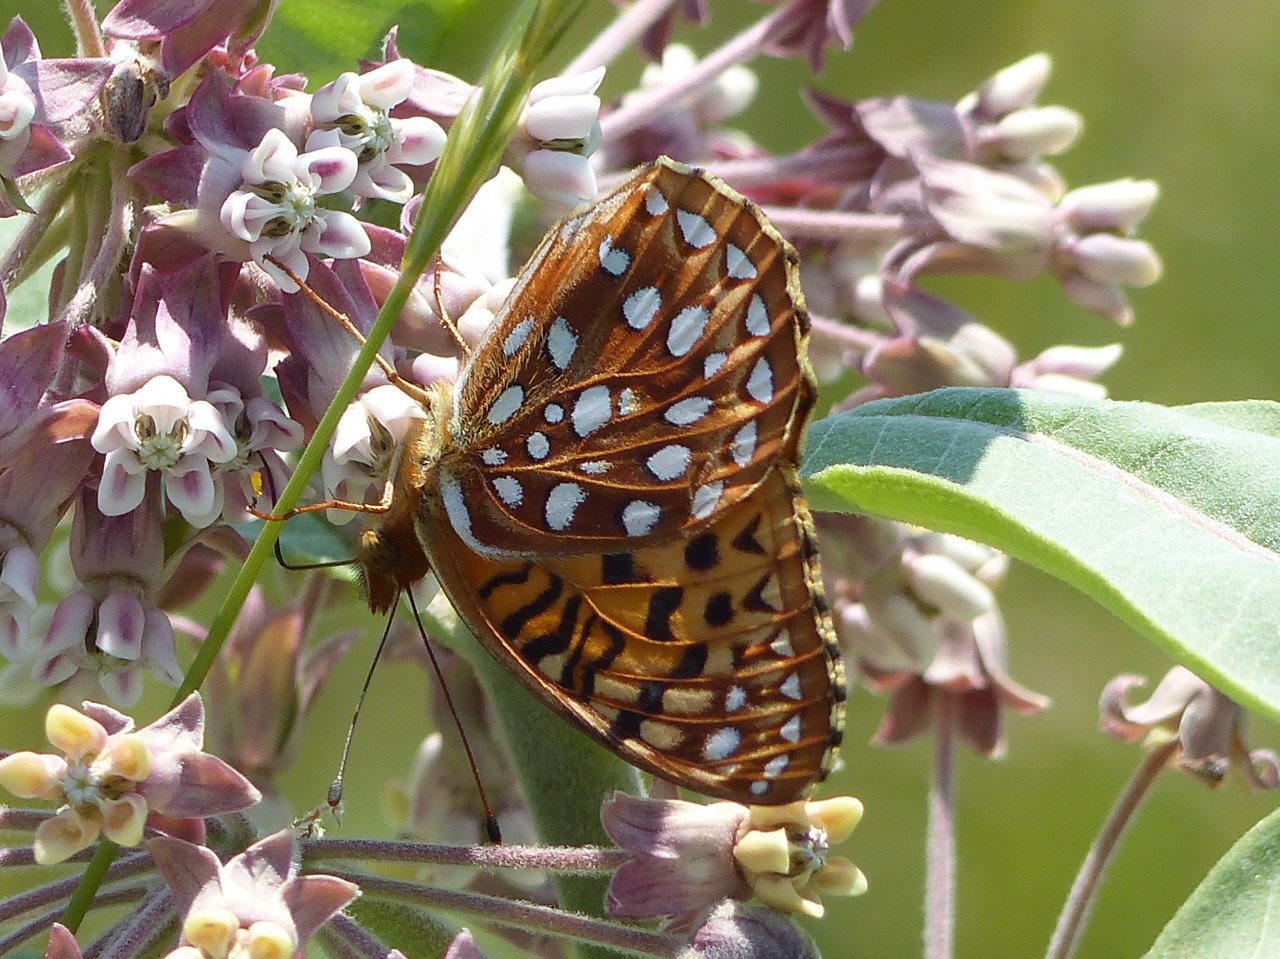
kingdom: Animalia
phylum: Arthropoda
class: Insecta
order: Lepidoptera
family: Nymphalidae
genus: Speyeria
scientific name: Speyeria aphrodite
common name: Aphrodite Fritillary
